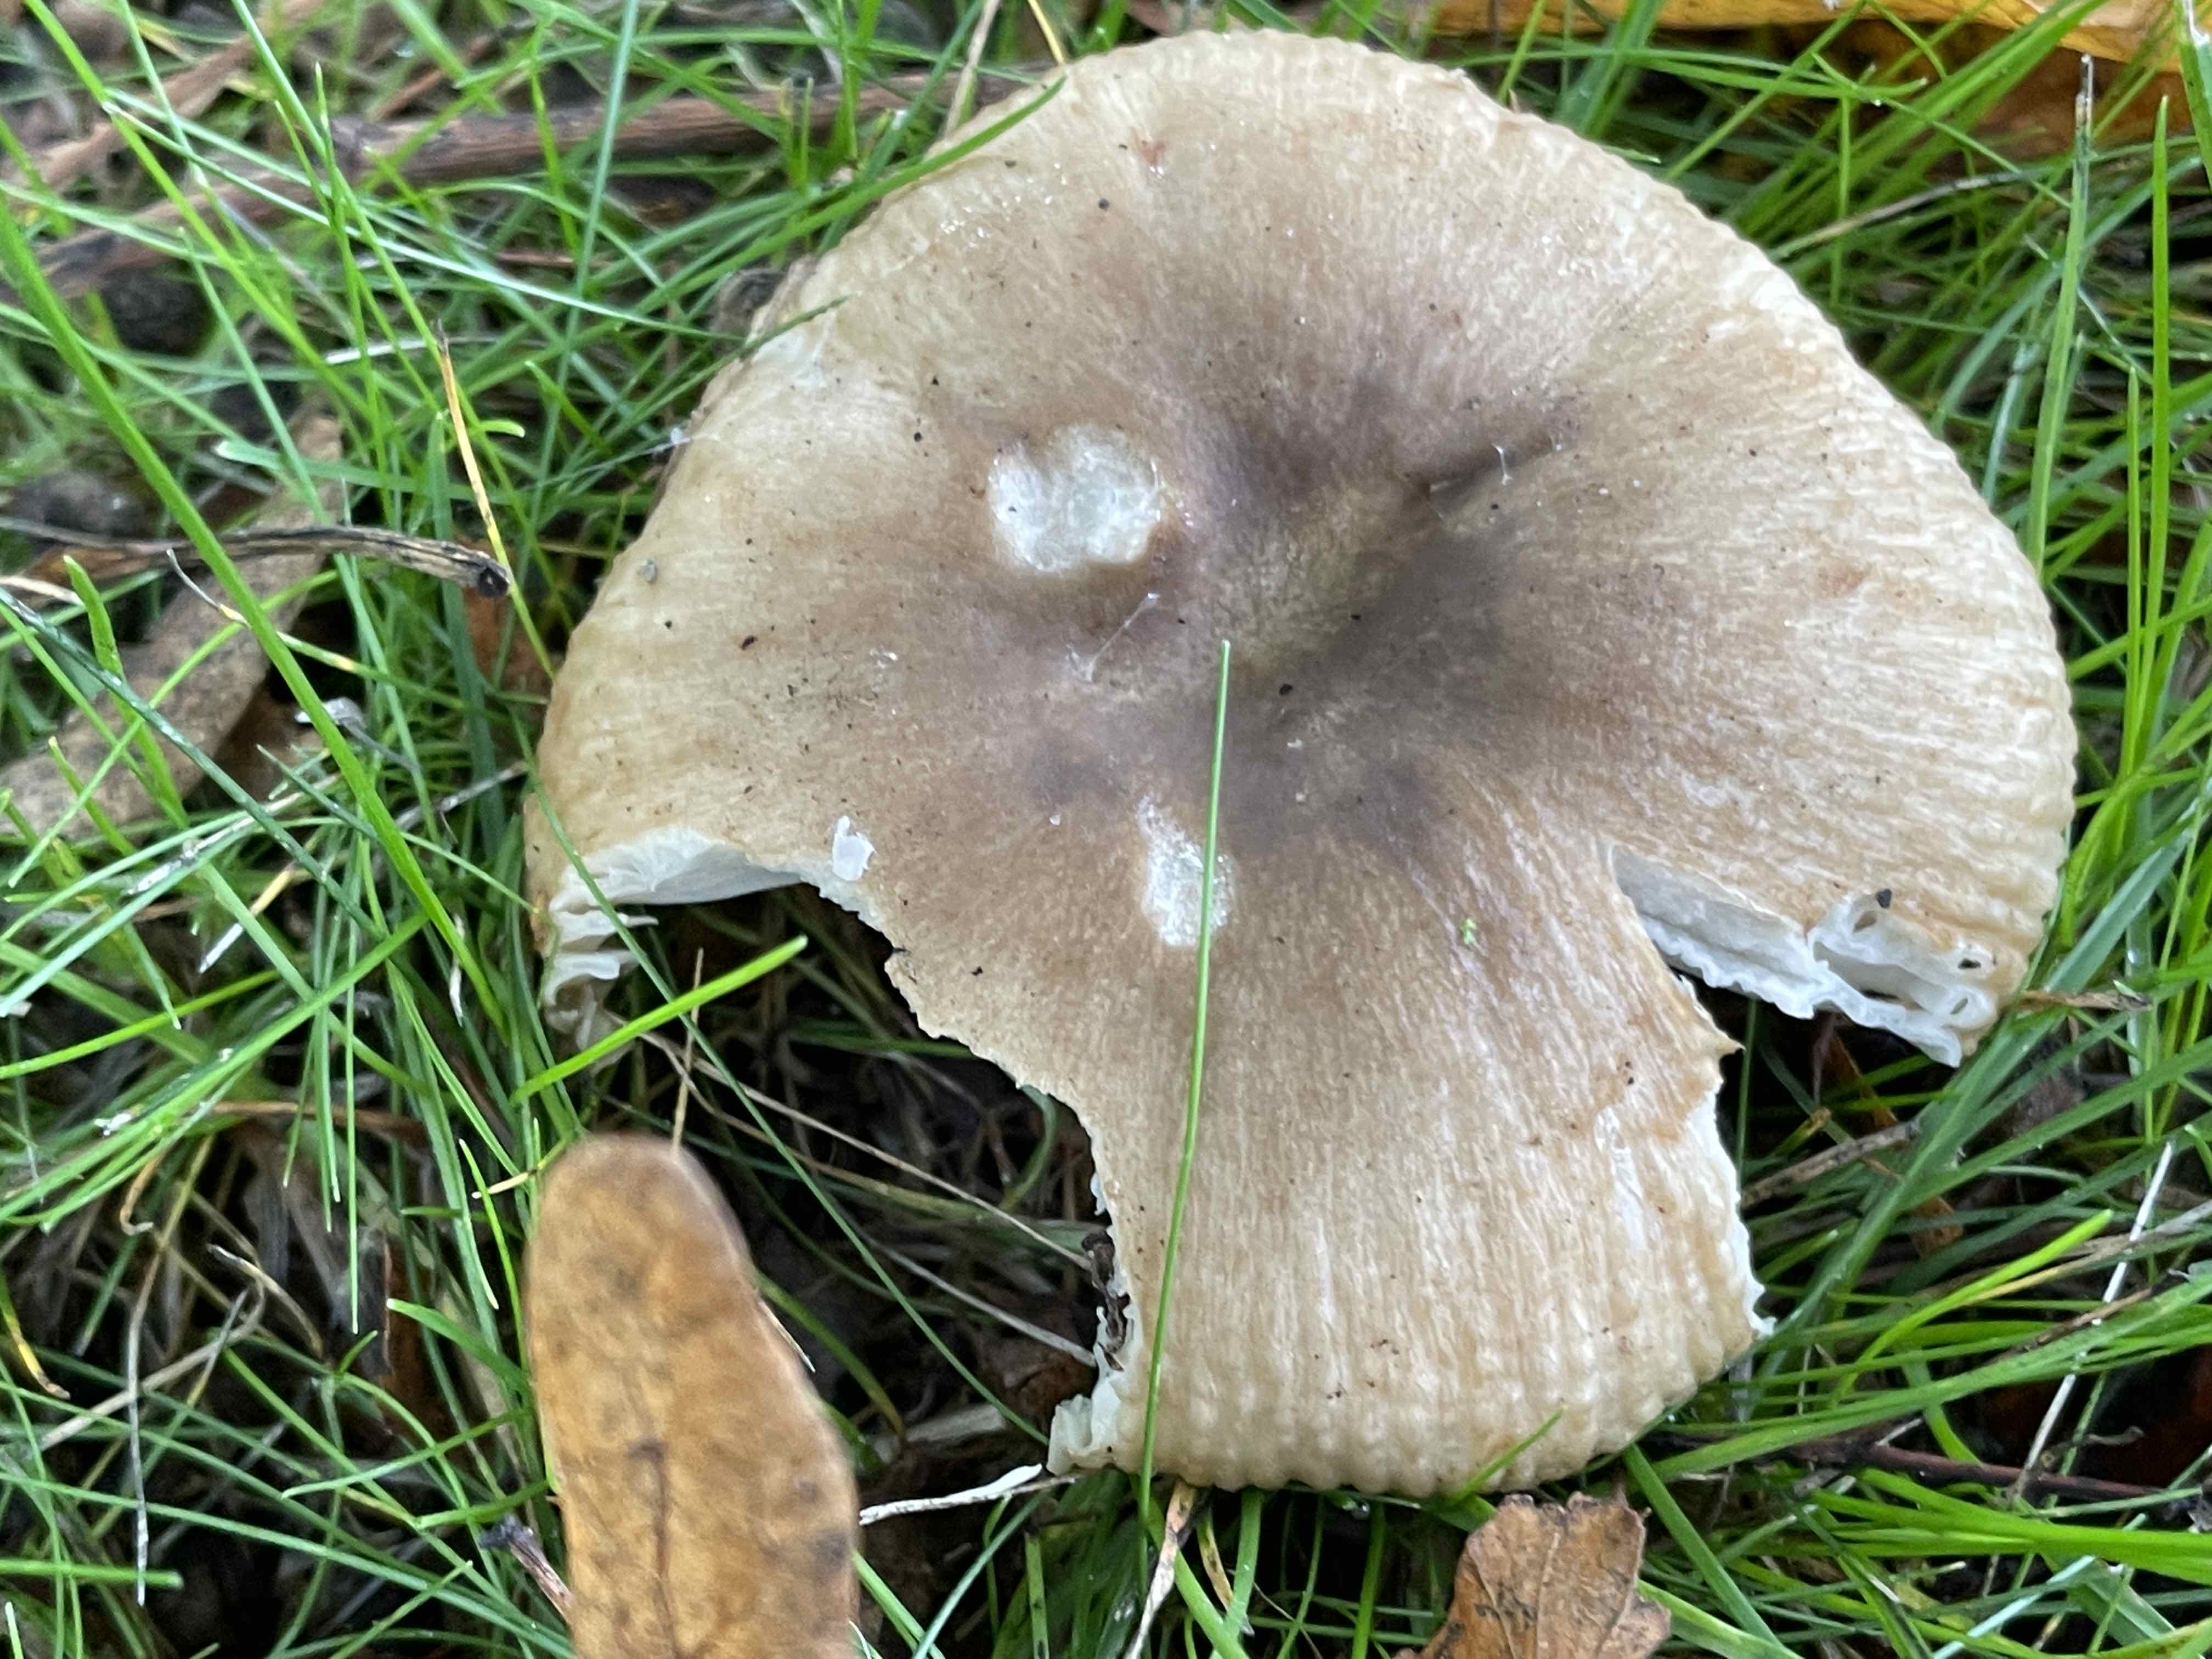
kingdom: Fungi
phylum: Basidiomycota
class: Agaricomycetes
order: Russulales
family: Russulaceae
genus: Russula
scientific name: Russula amoenolens
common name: skarp kam-skørhat
